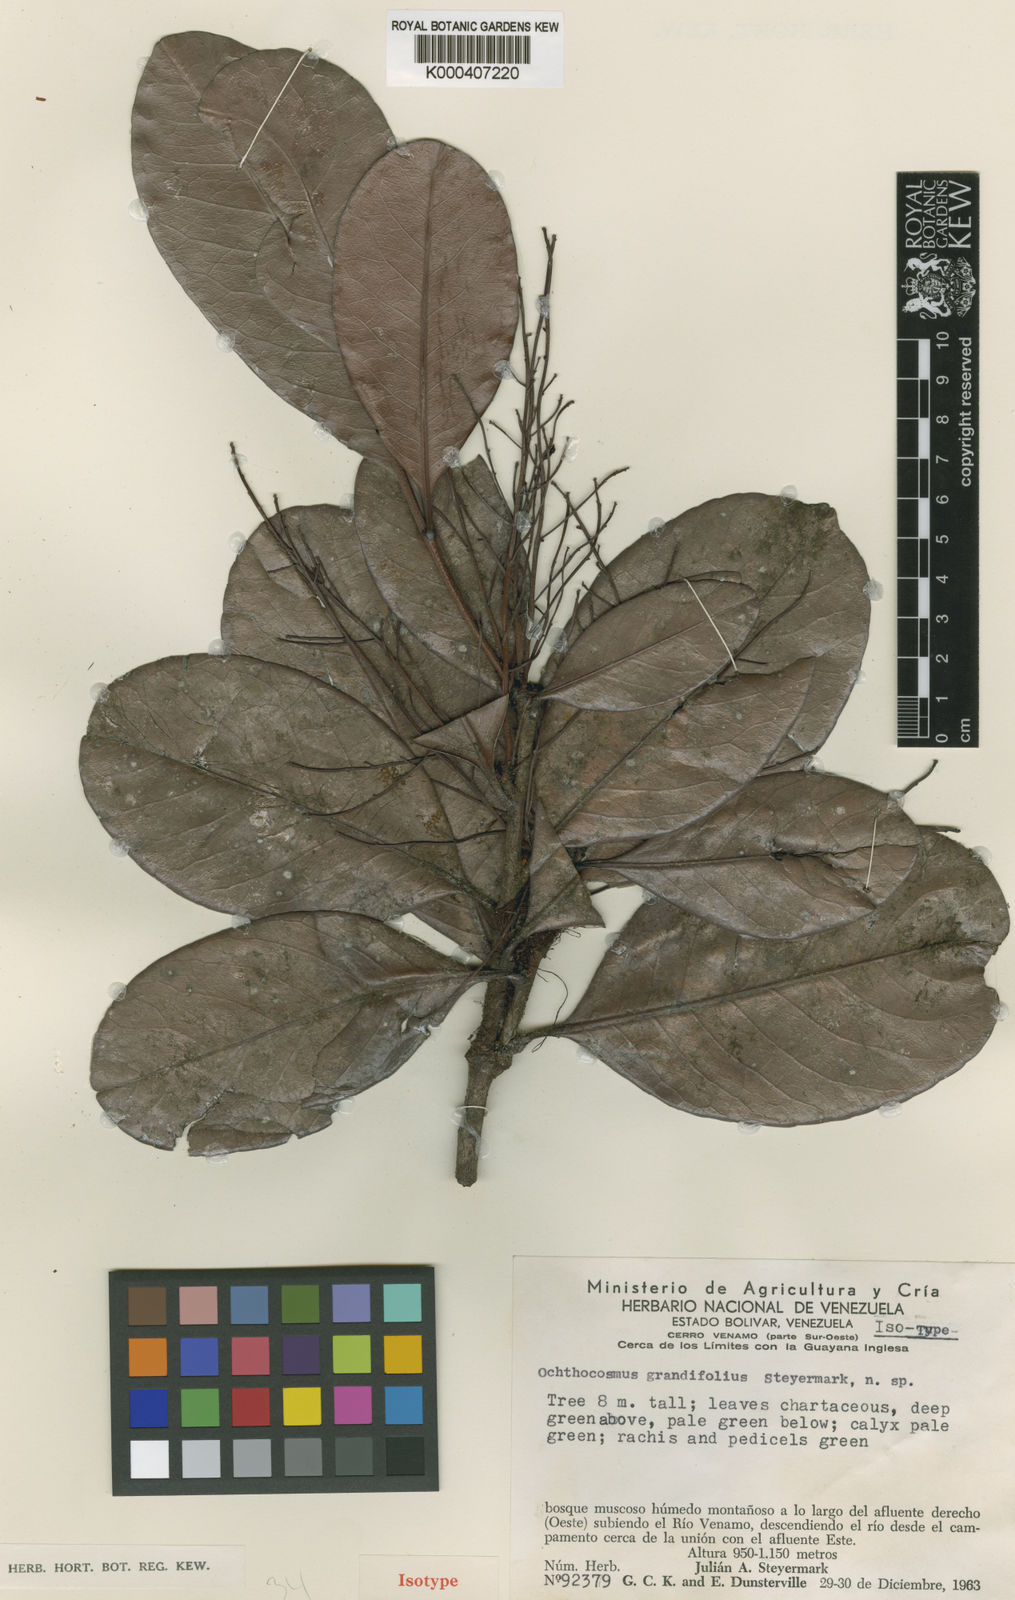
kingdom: Plantae
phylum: Tracheophyta
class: Magnoliopsida
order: Malpighiales
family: Ixonanthaceae
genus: Ochthocosmus
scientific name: Ochthocosmus roraimae
